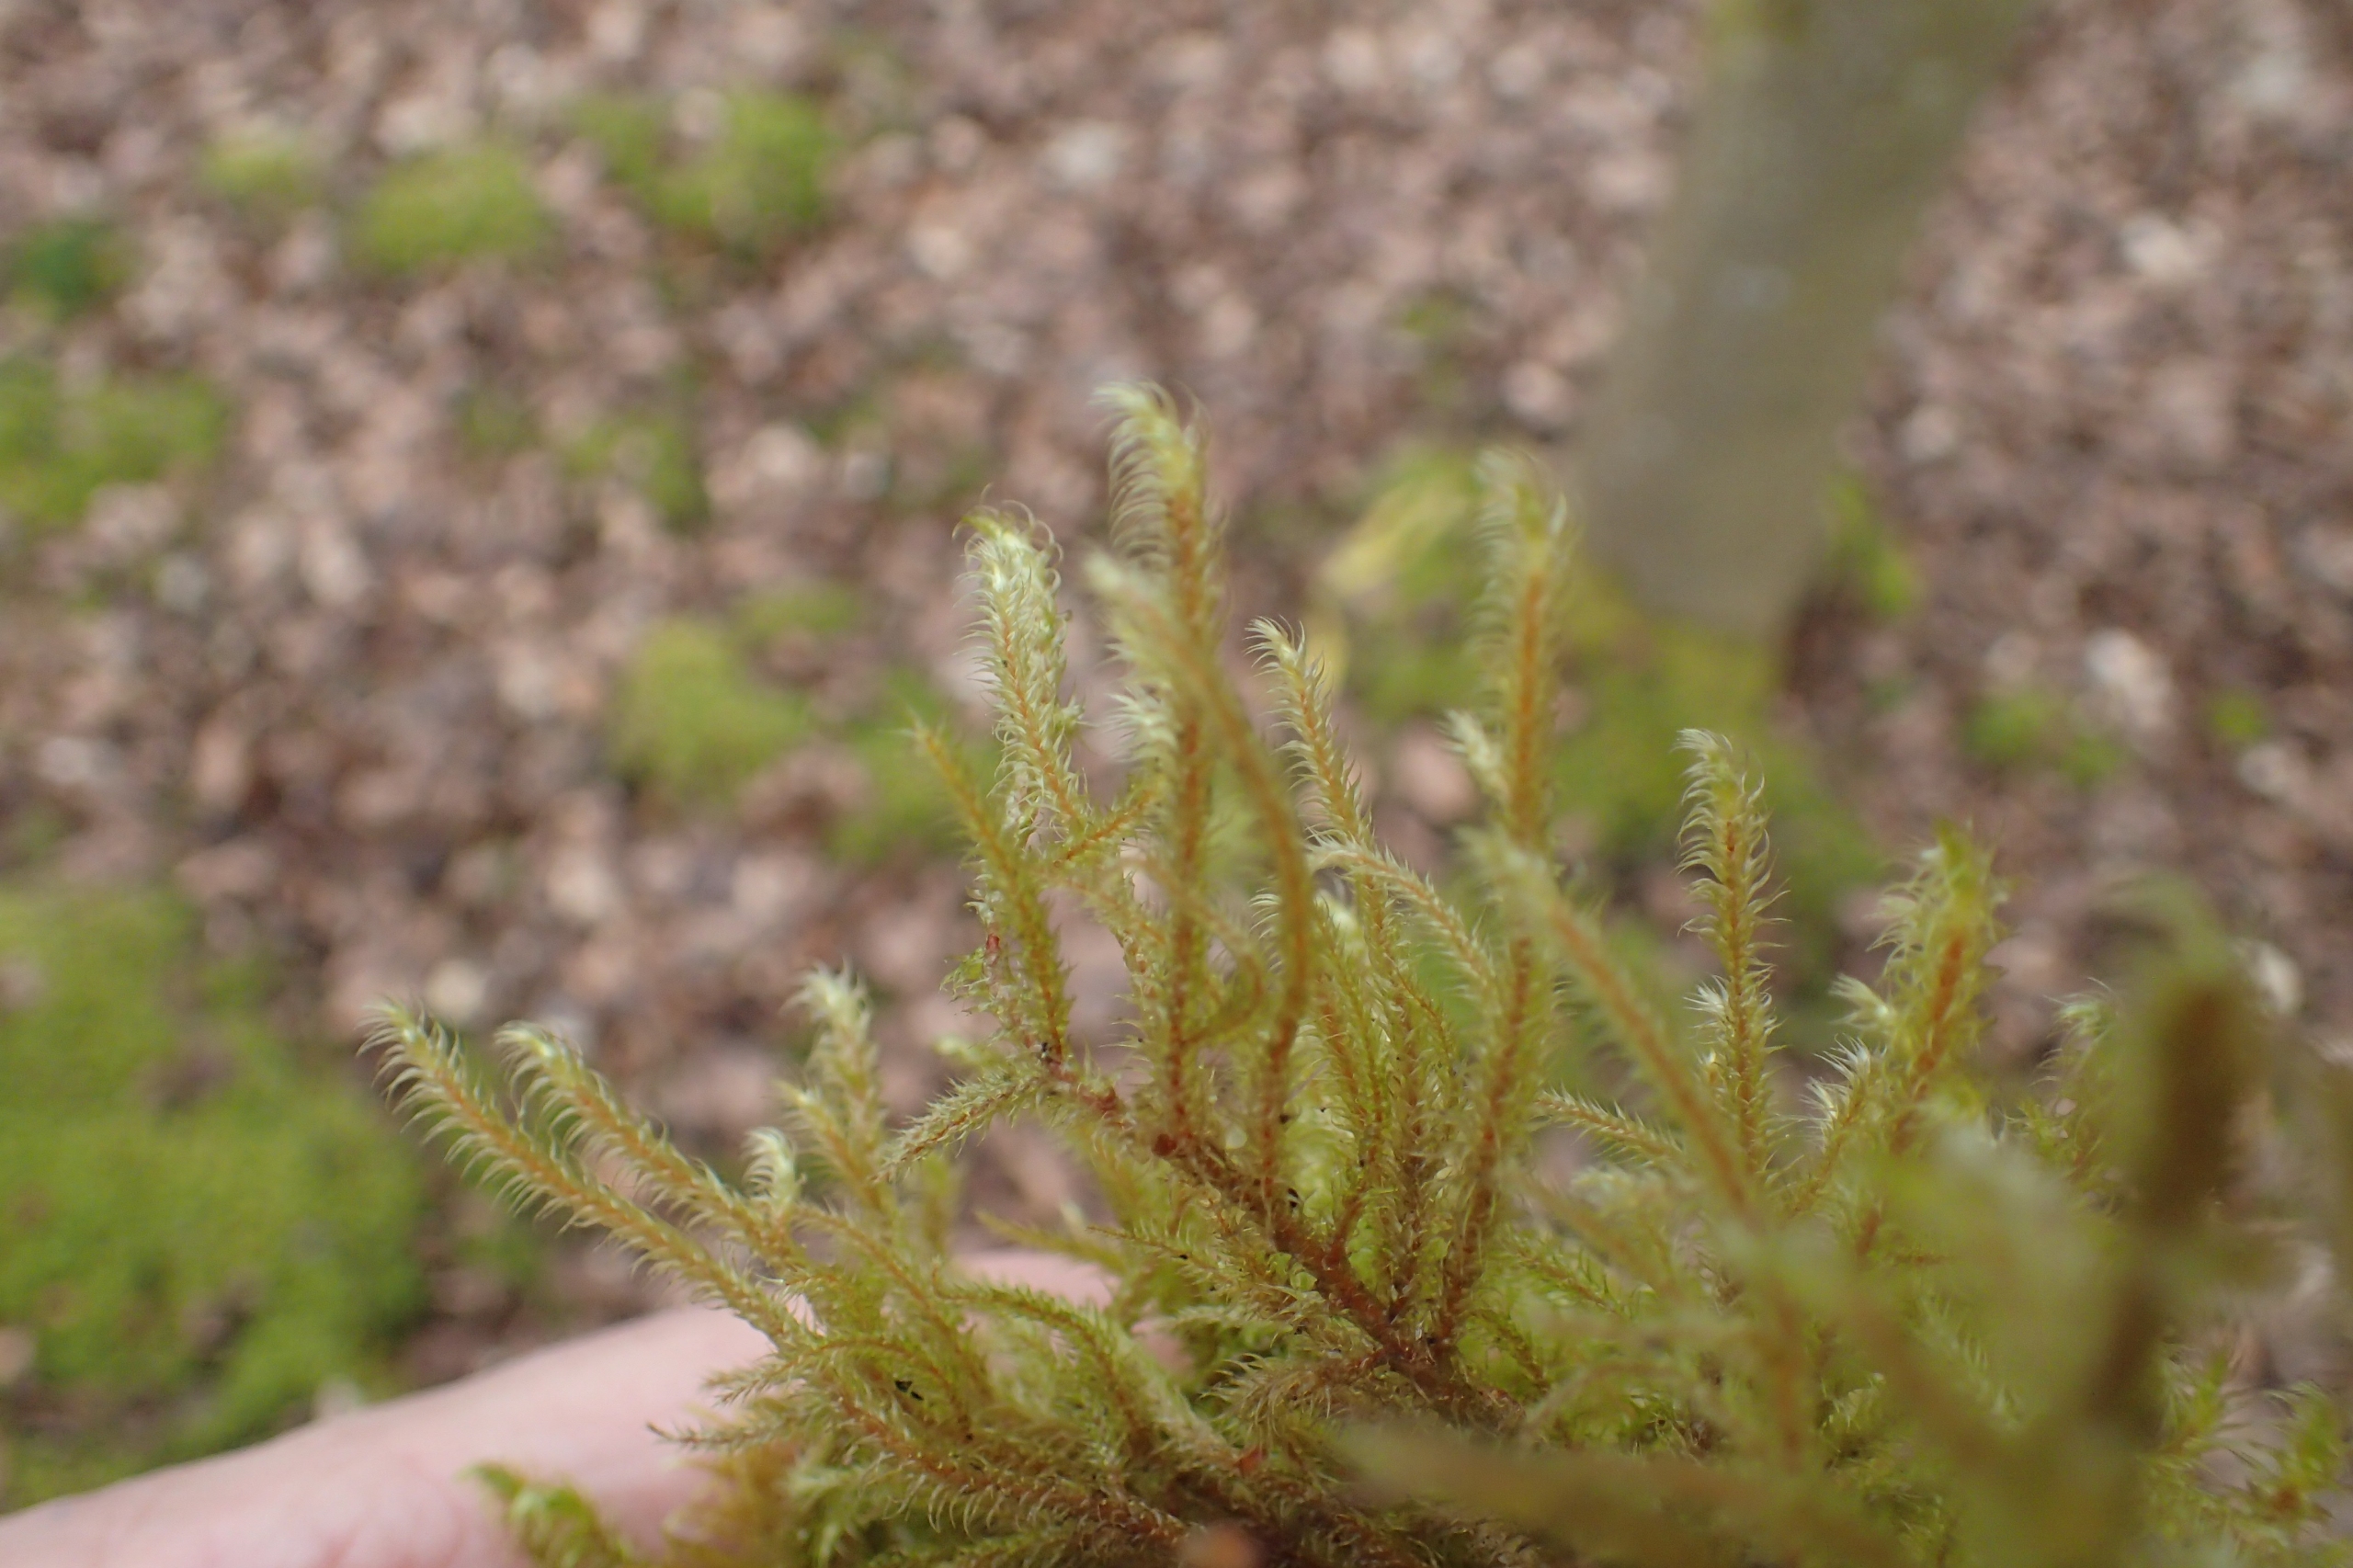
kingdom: Plantae
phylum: Bryophyta
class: Bryopsida
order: Hypnales
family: Hylocomiaceae
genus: Rhytidiadelphus
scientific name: Rhytidiadelphus loreus
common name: Ulvefod-kransemos
